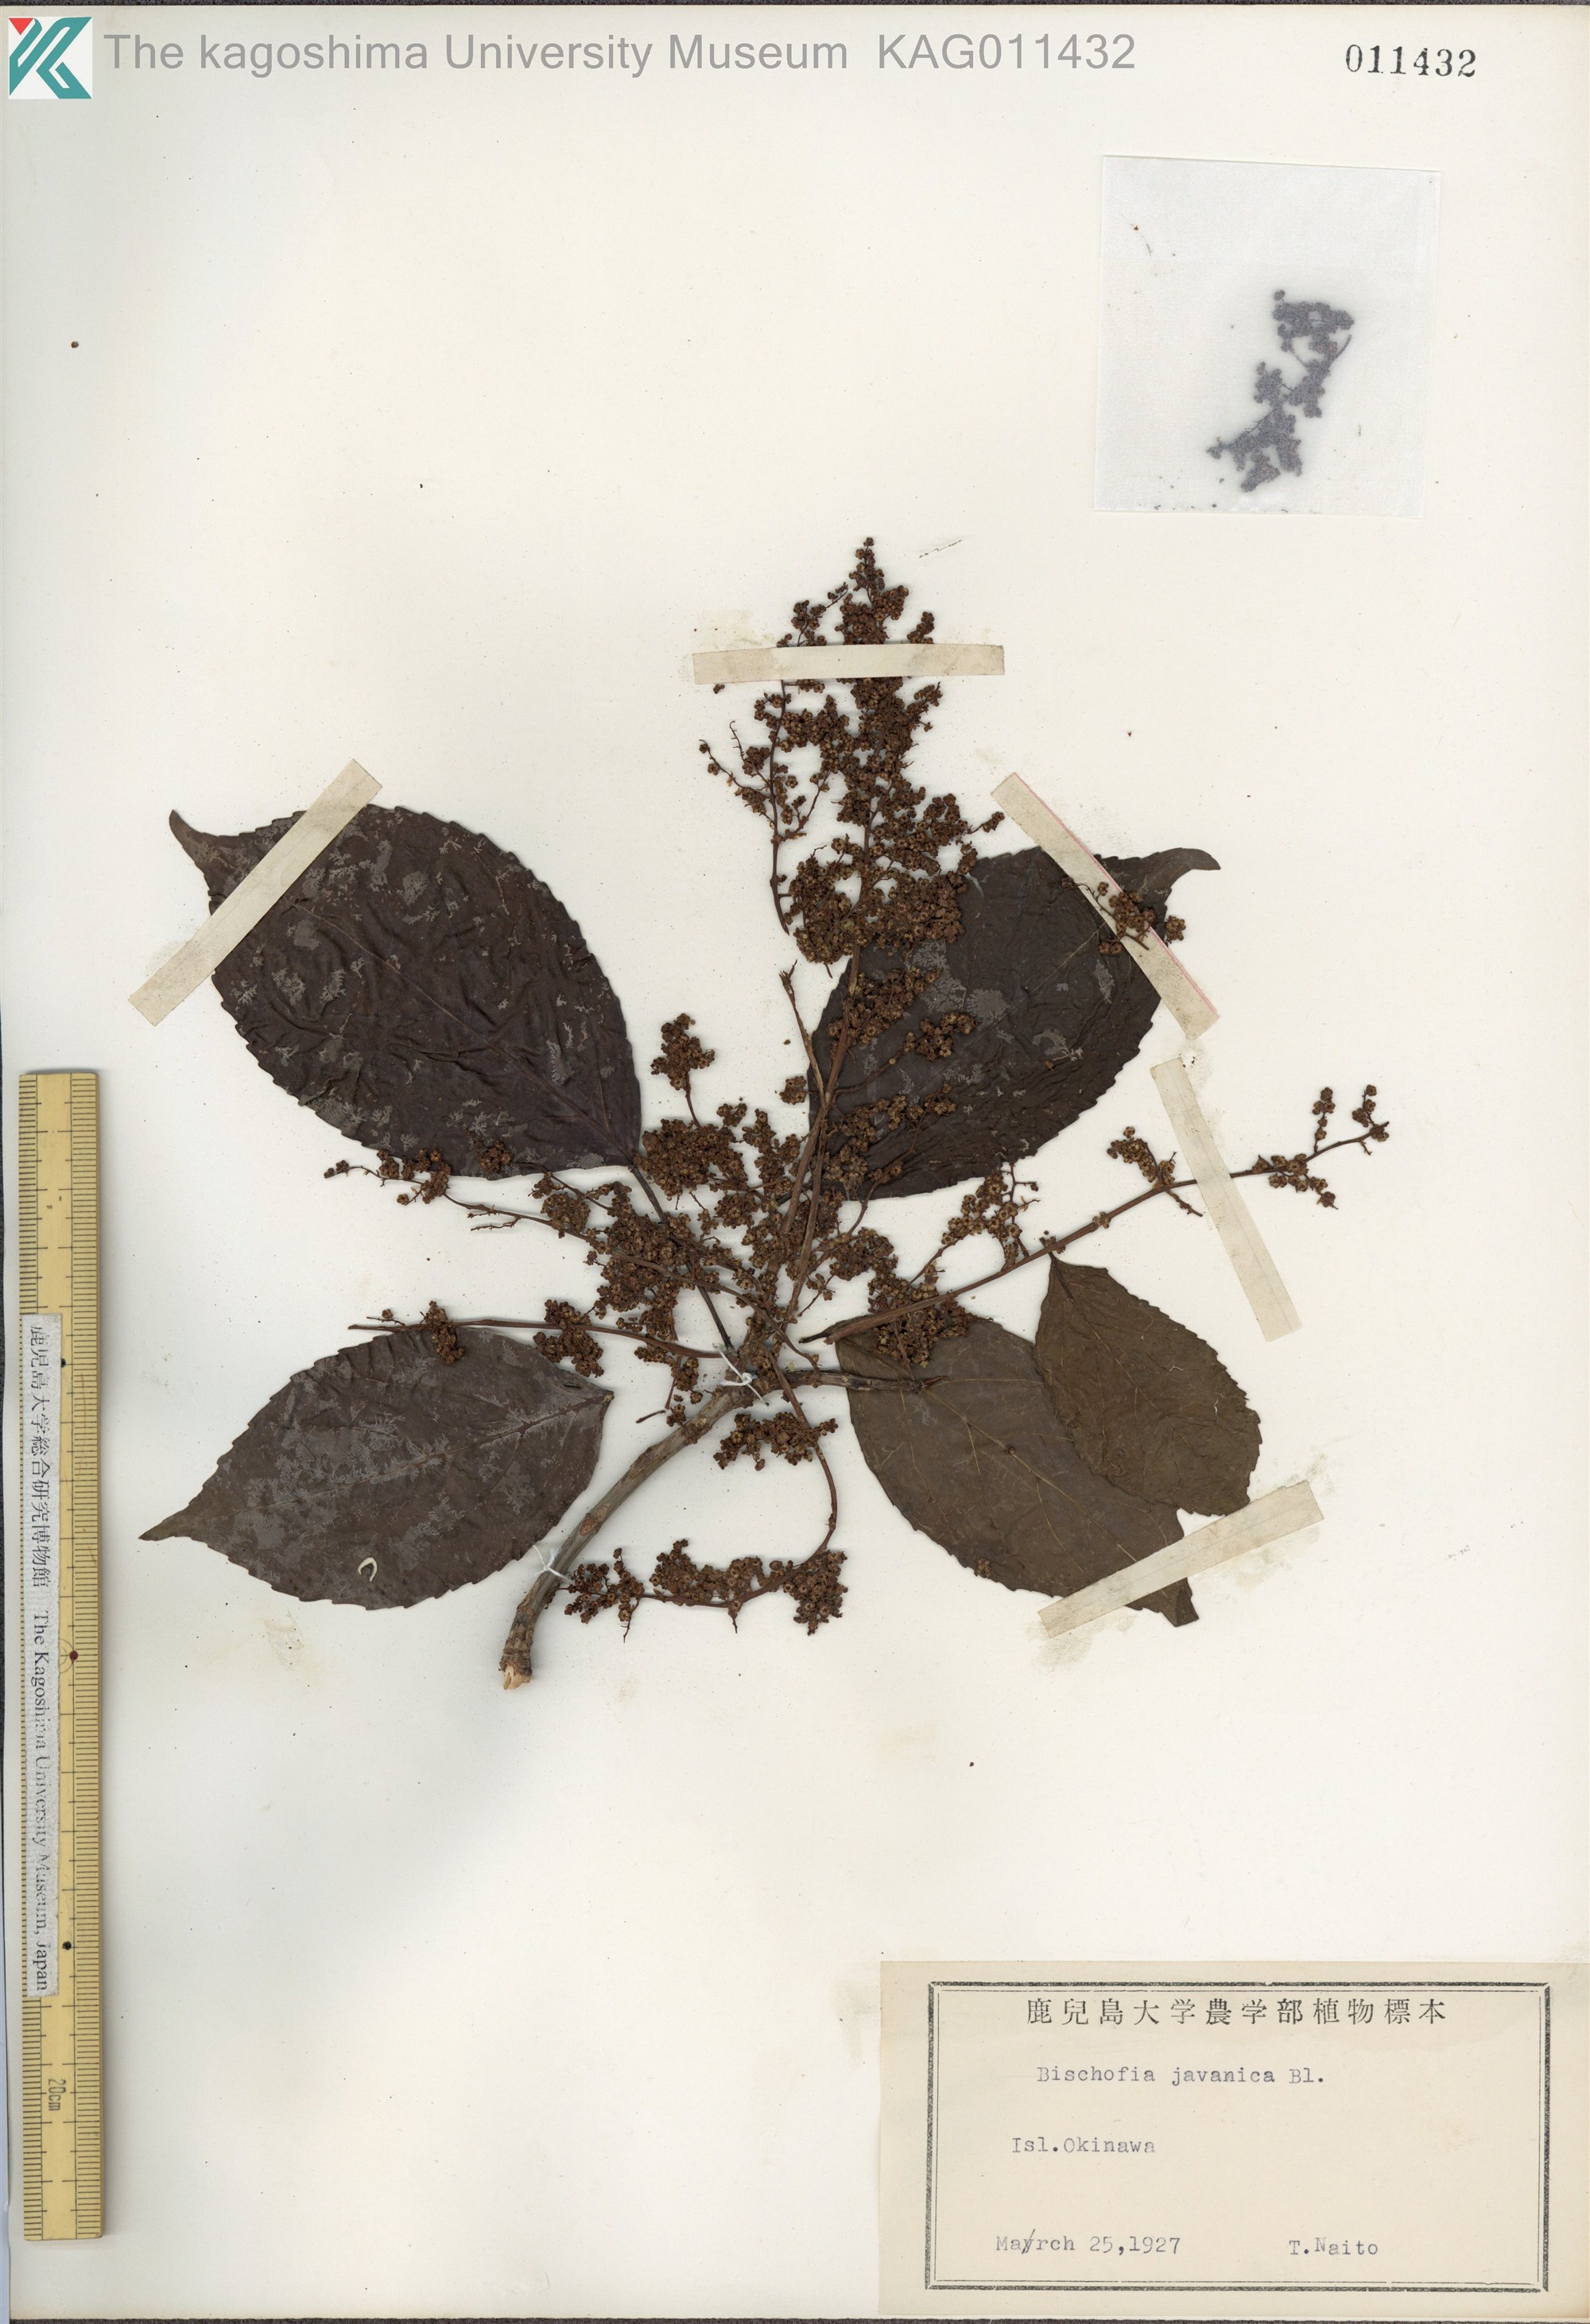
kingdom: Plantae
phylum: Tracheophyta
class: Magnoliopsida
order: Malpighiales
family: Phyllanthaceae
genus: Bischofia
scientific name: Bischofia javanica
